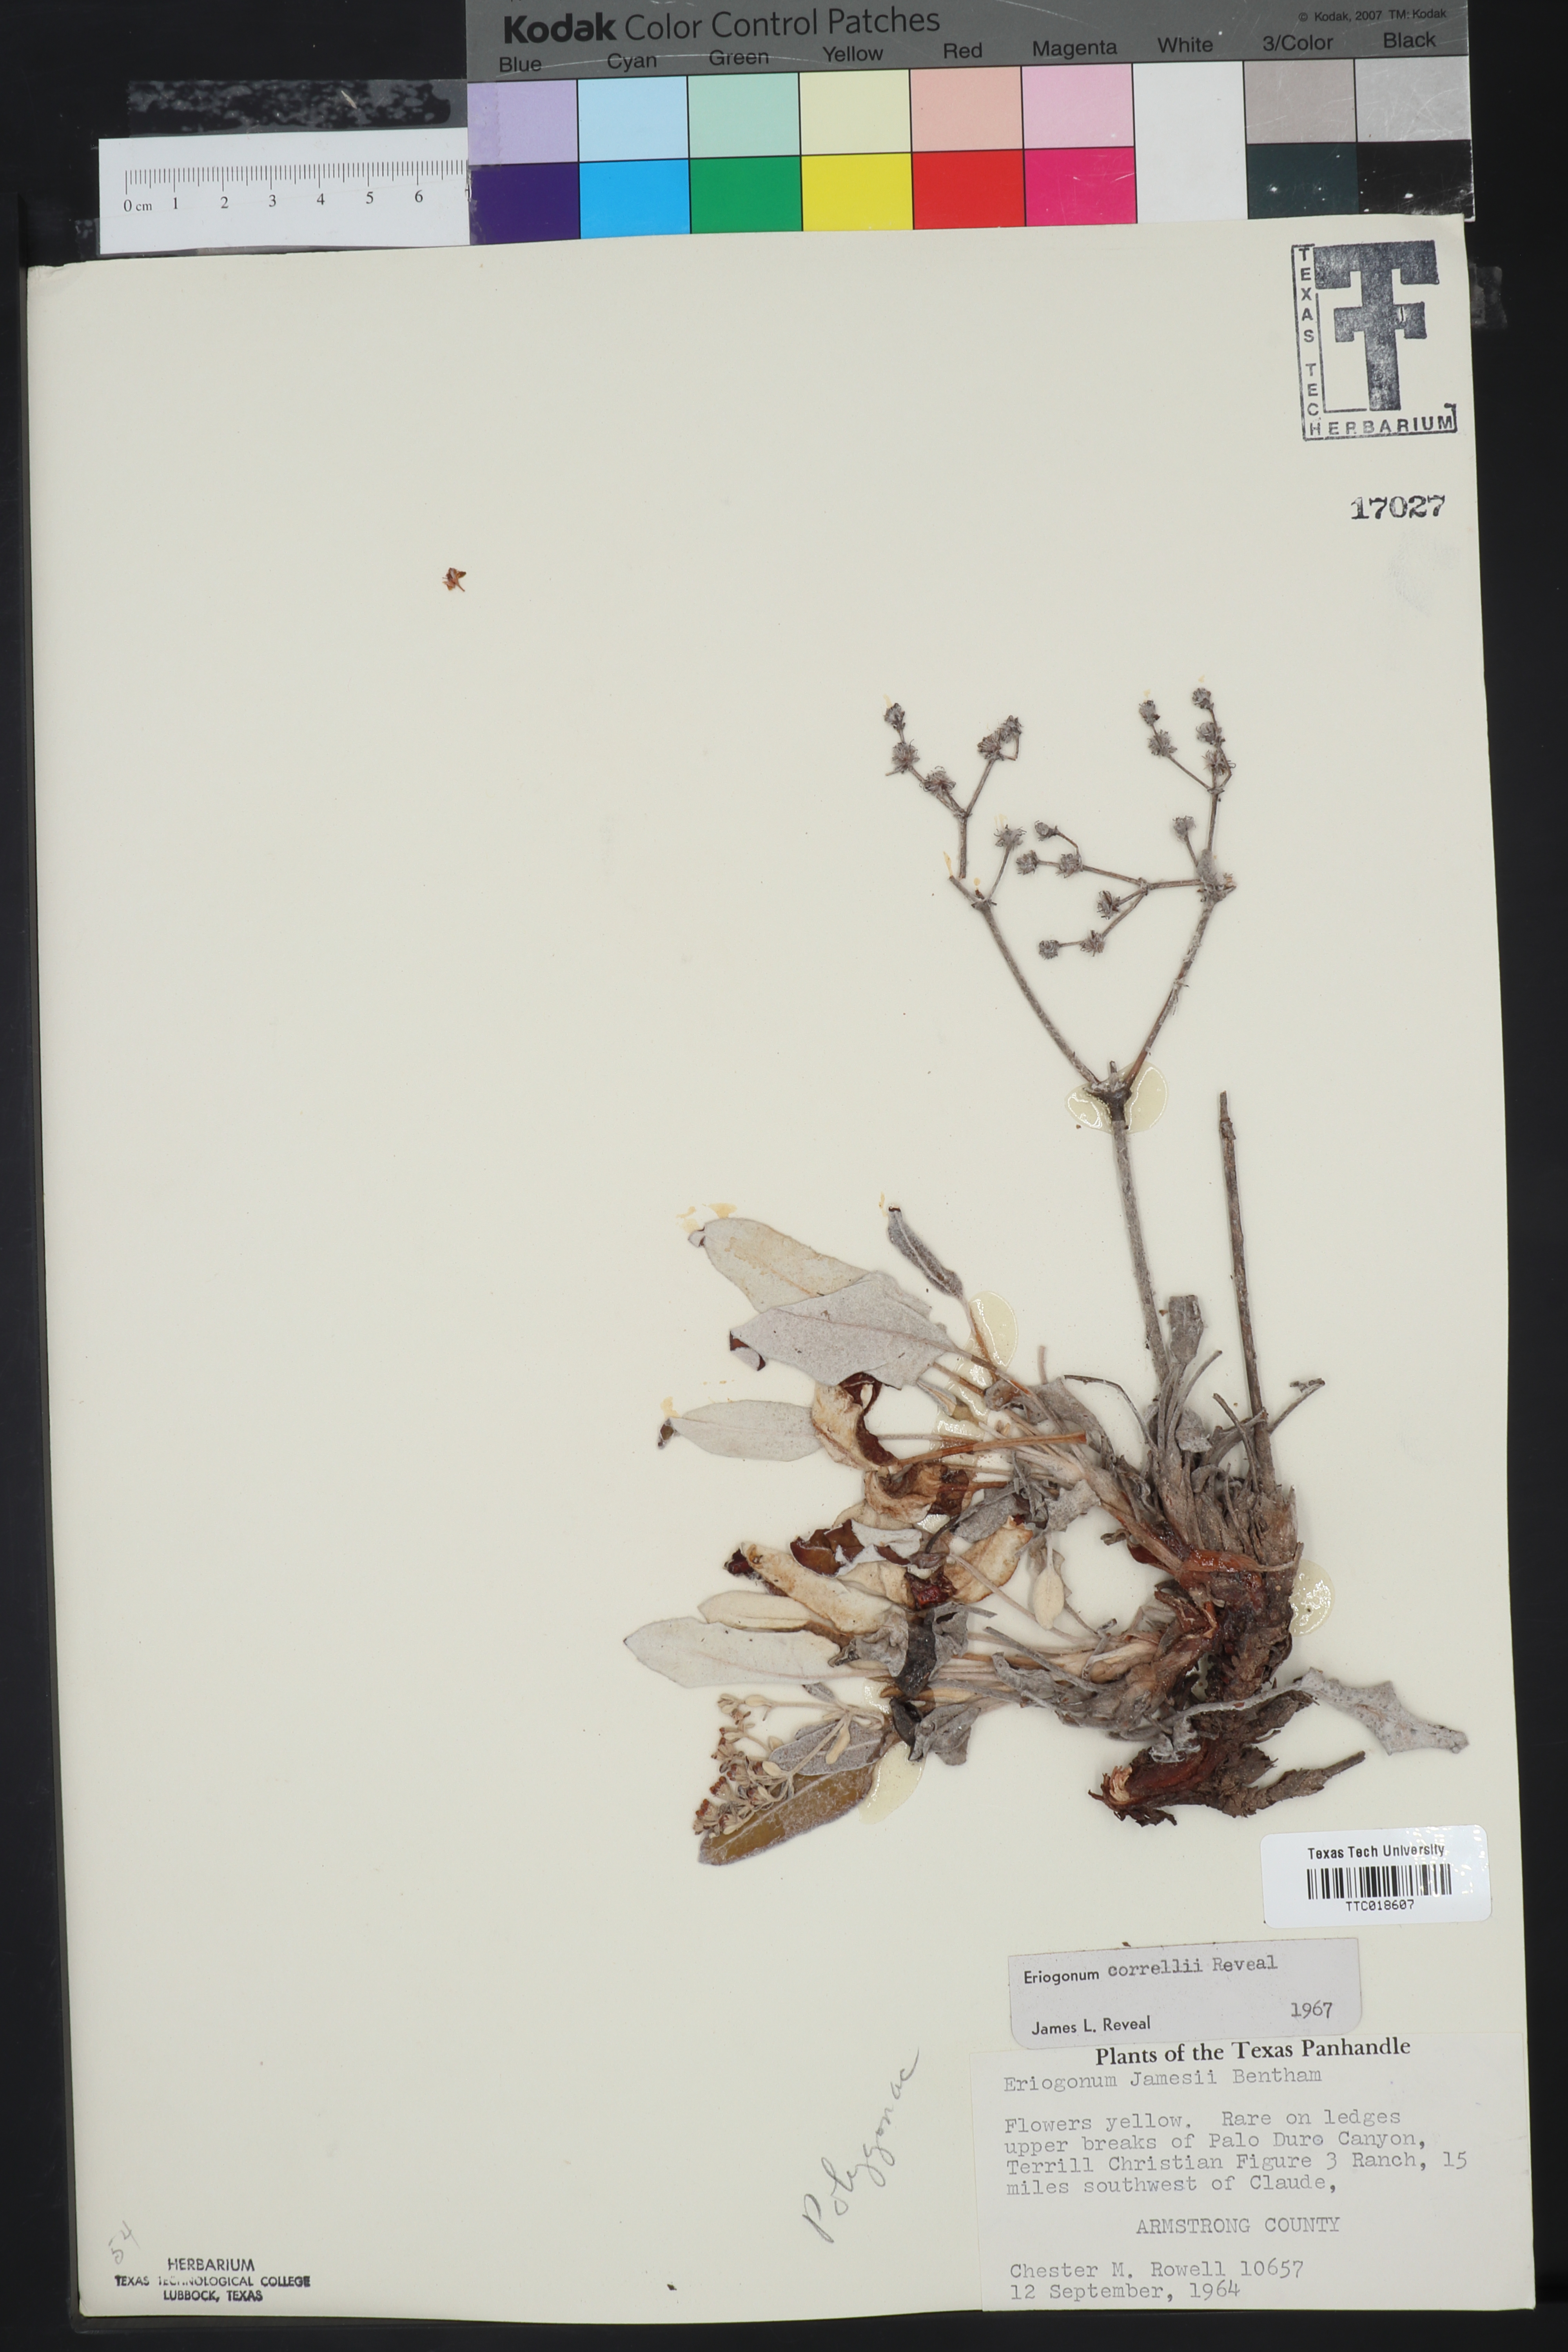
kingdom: Plantae
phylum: Tracheophyta
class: Magnoliopsida
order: Caryophyllales
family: Polygonaceae
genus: Eriogonum
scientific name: Eriogonum correllii
